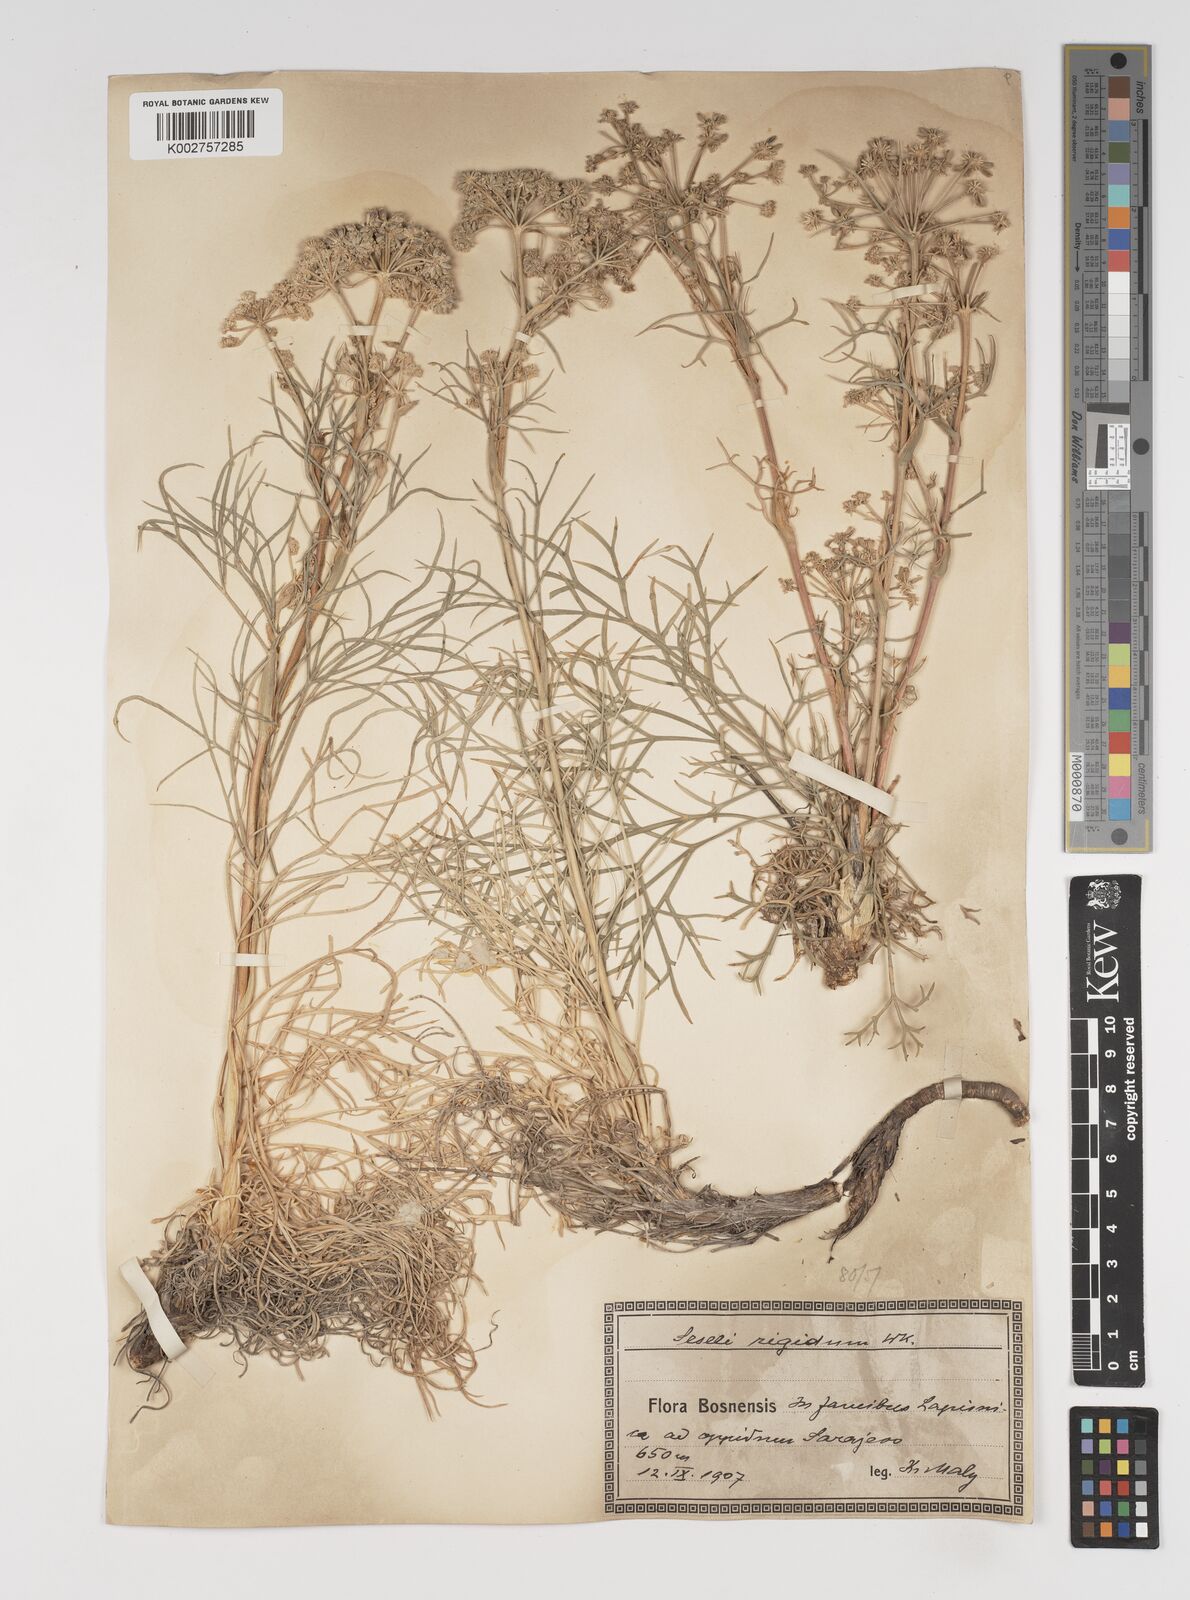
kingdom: Plantae
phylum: Tracheophyta
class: Magnoliopsida
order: Apiales
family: Apiaceae
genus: Seseli
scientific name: Seseli rigidum
